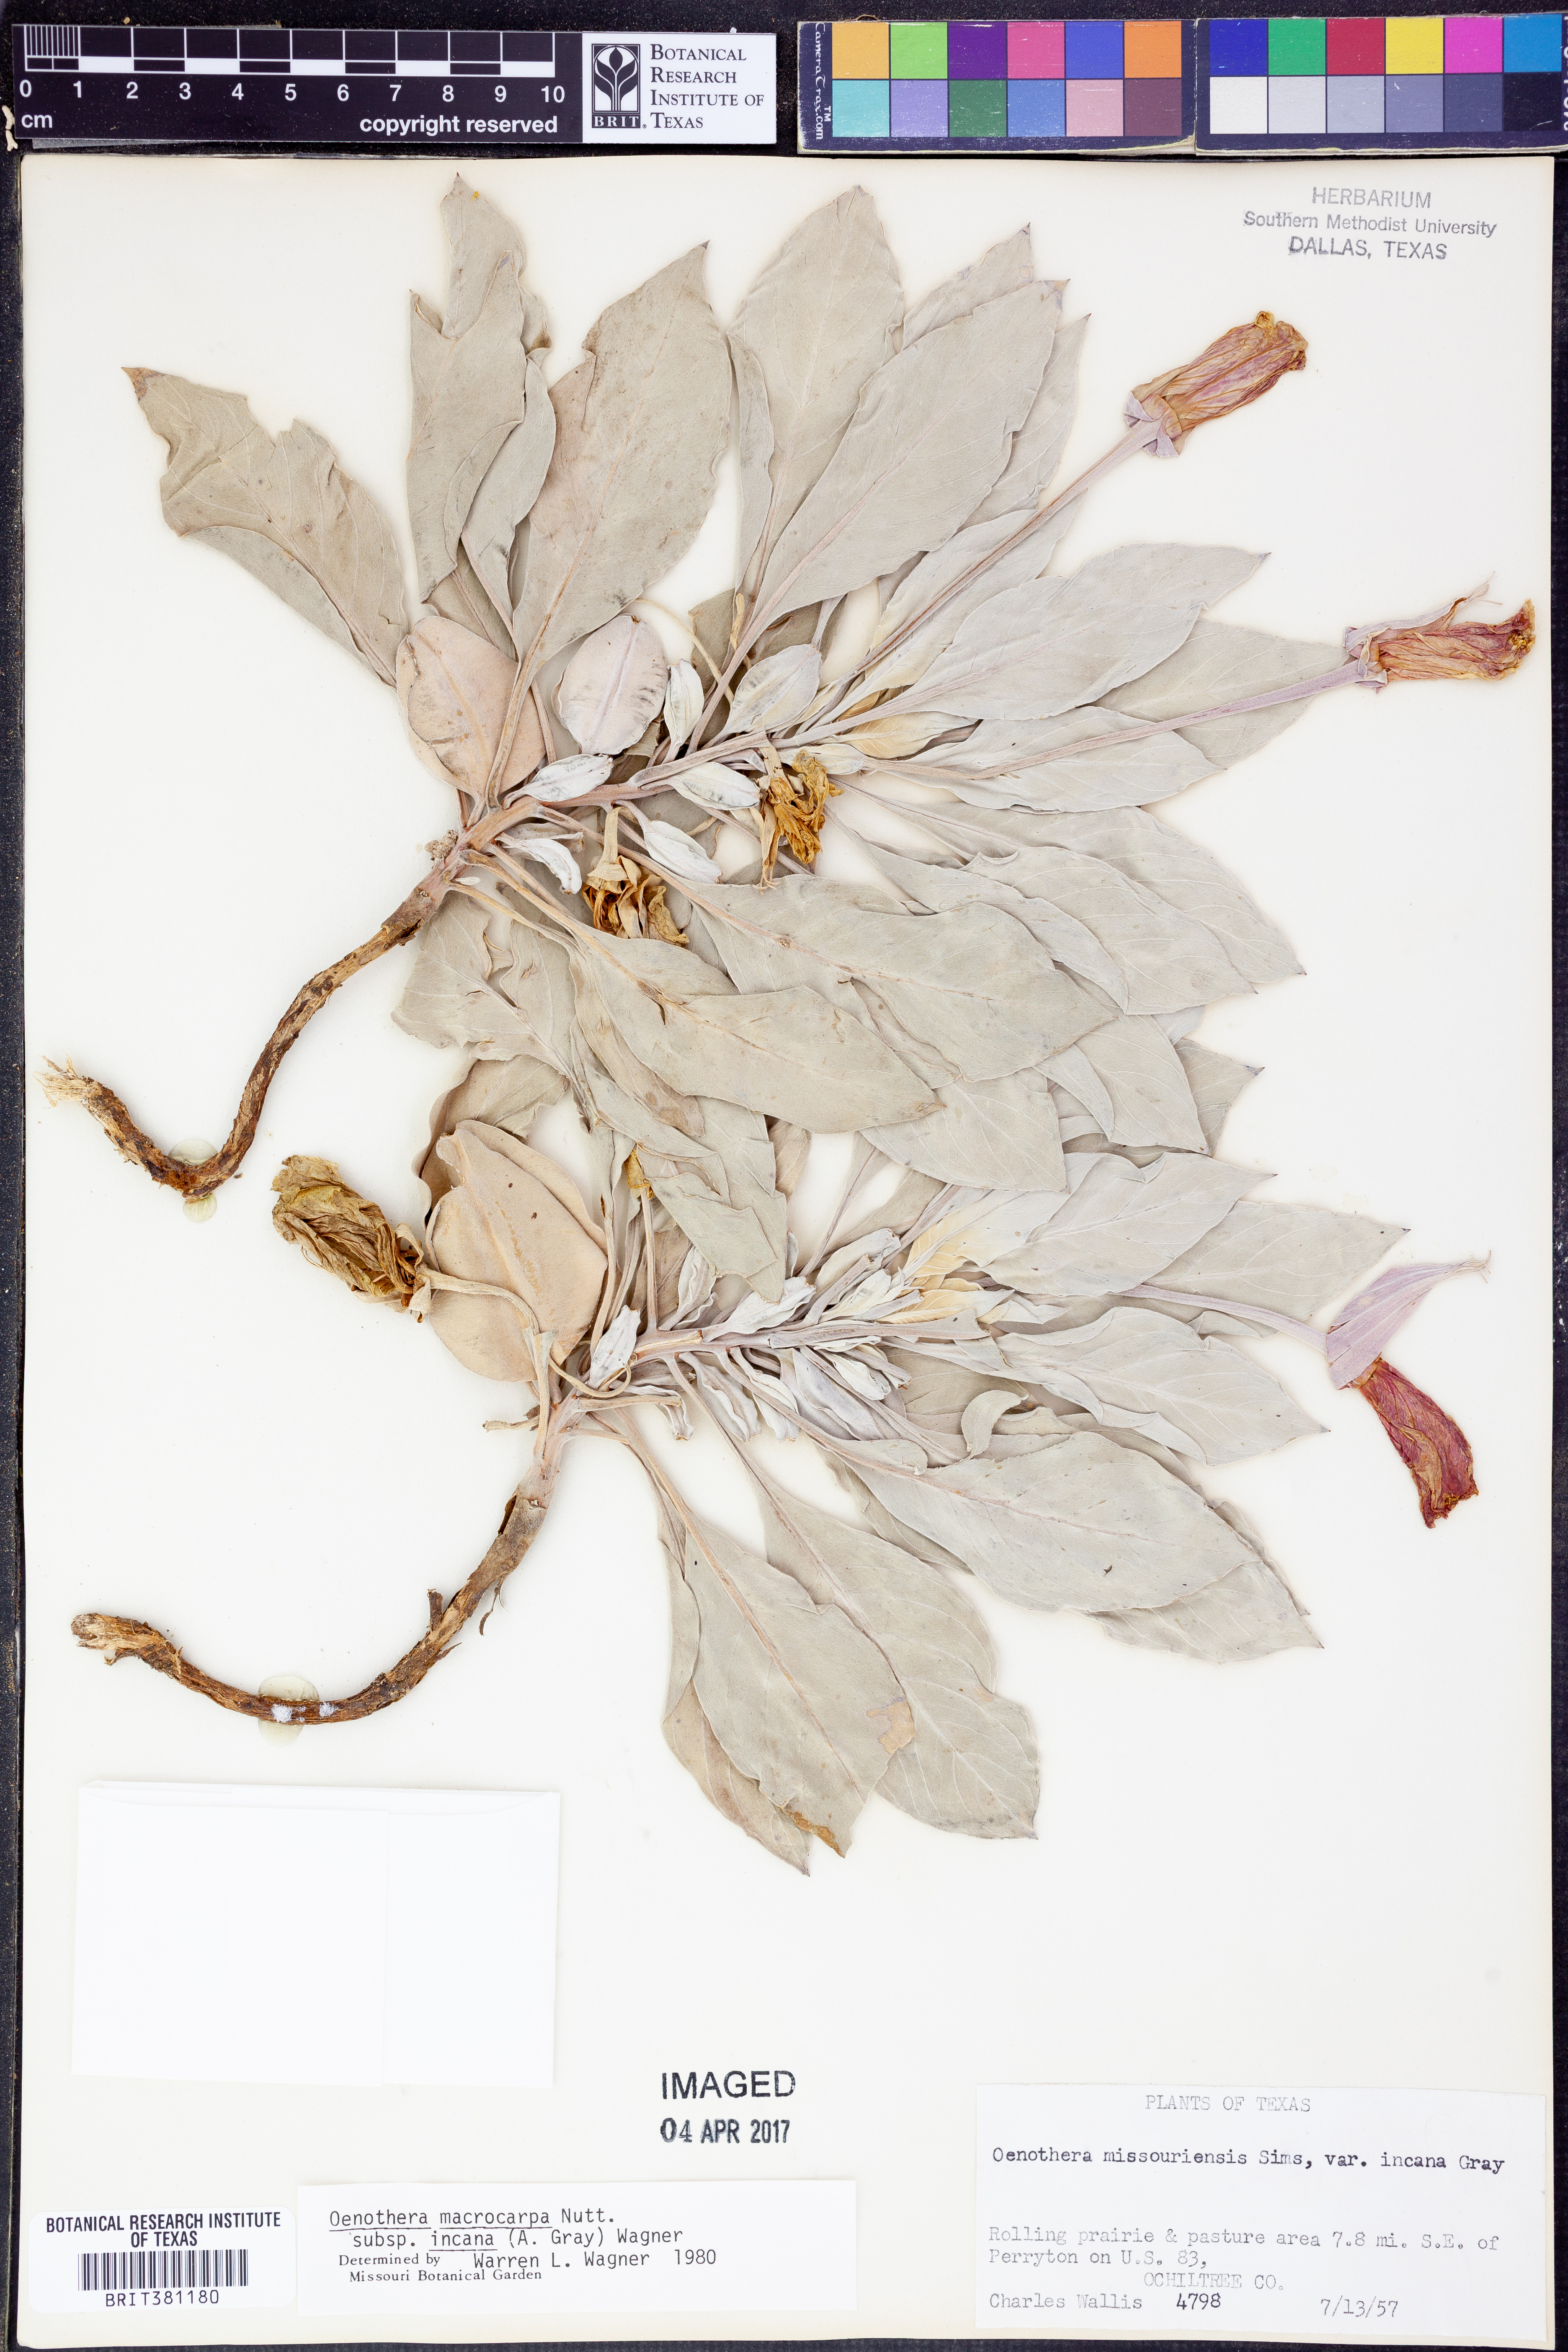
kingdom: Plantae
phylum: Tracheophyta
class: Magnoliopsida
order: Myrtales
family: Onagraceae
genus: Oenothera
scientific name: Oenothera macrocarpa
